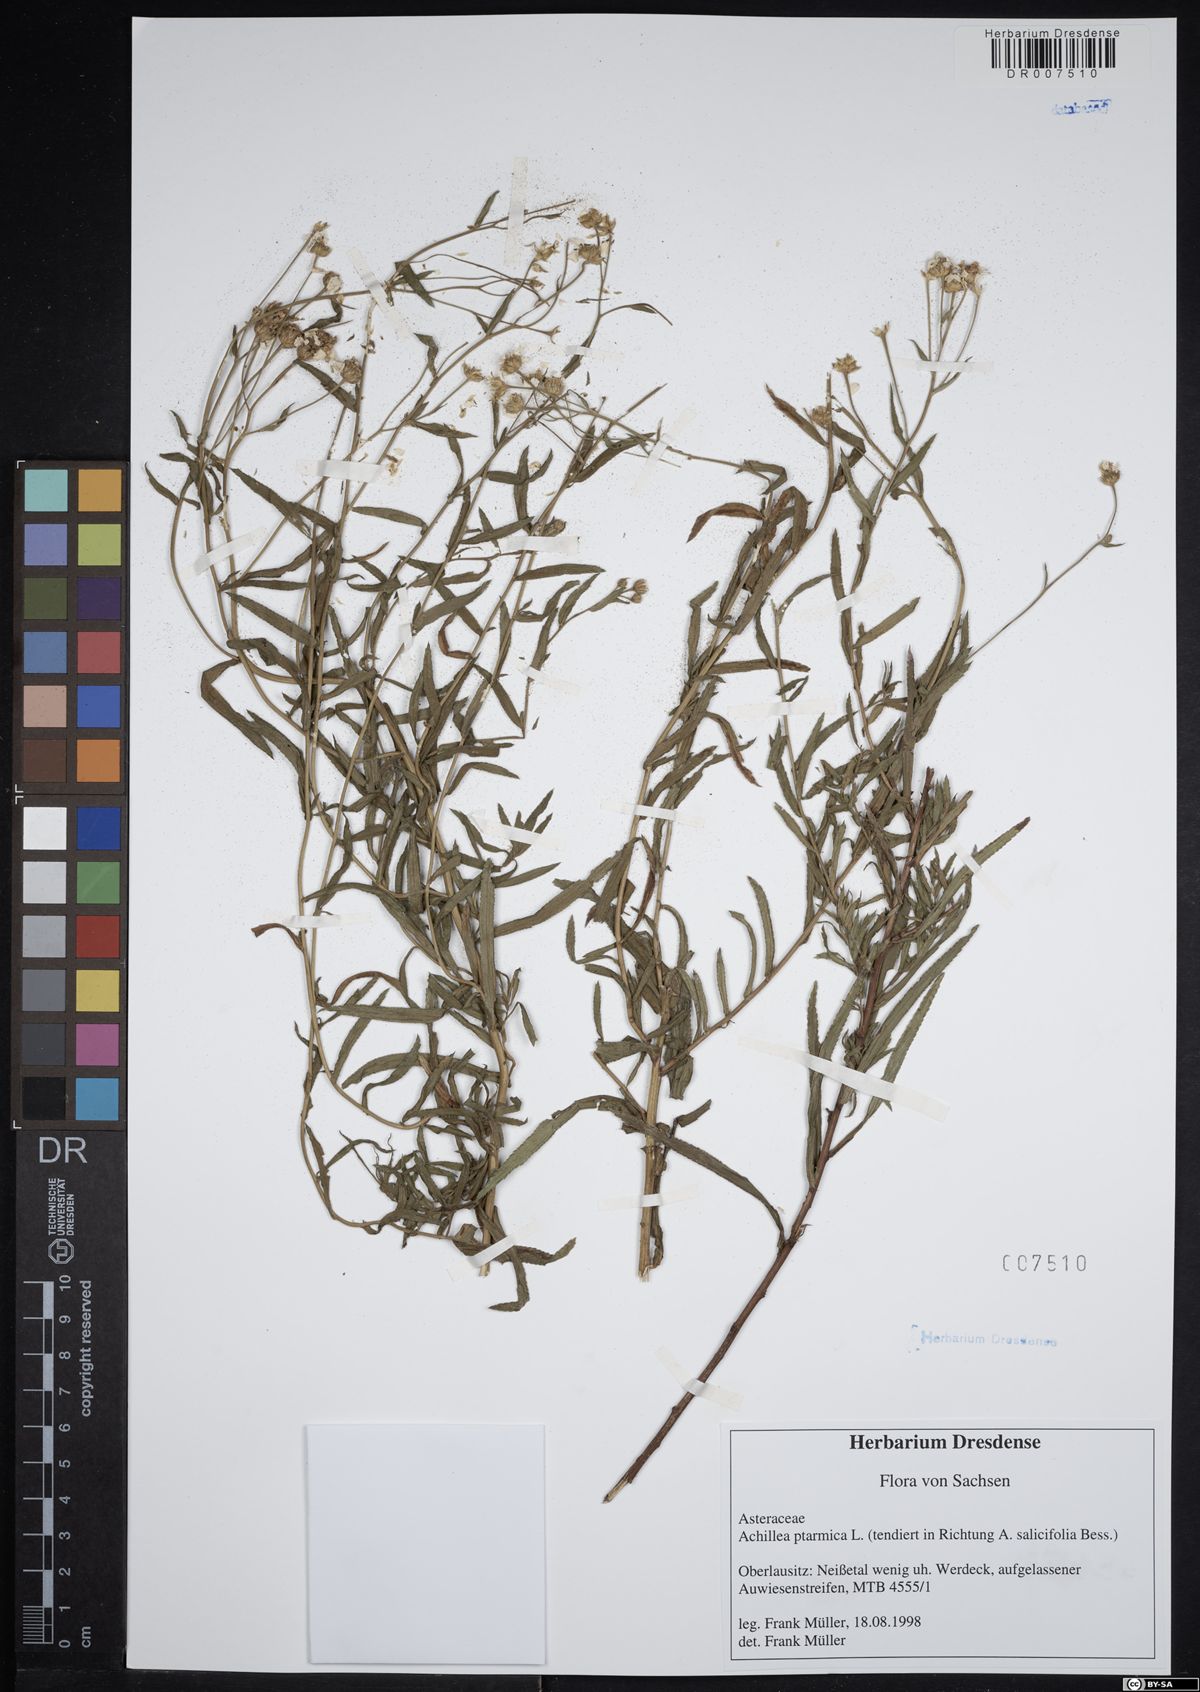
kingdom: Plantae
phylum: Tracheophyta
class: Magnoliopsida
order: Asterales
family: Asteraceae
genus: Achillea
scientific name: Achillea ptarmica
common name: Sneezeweed
